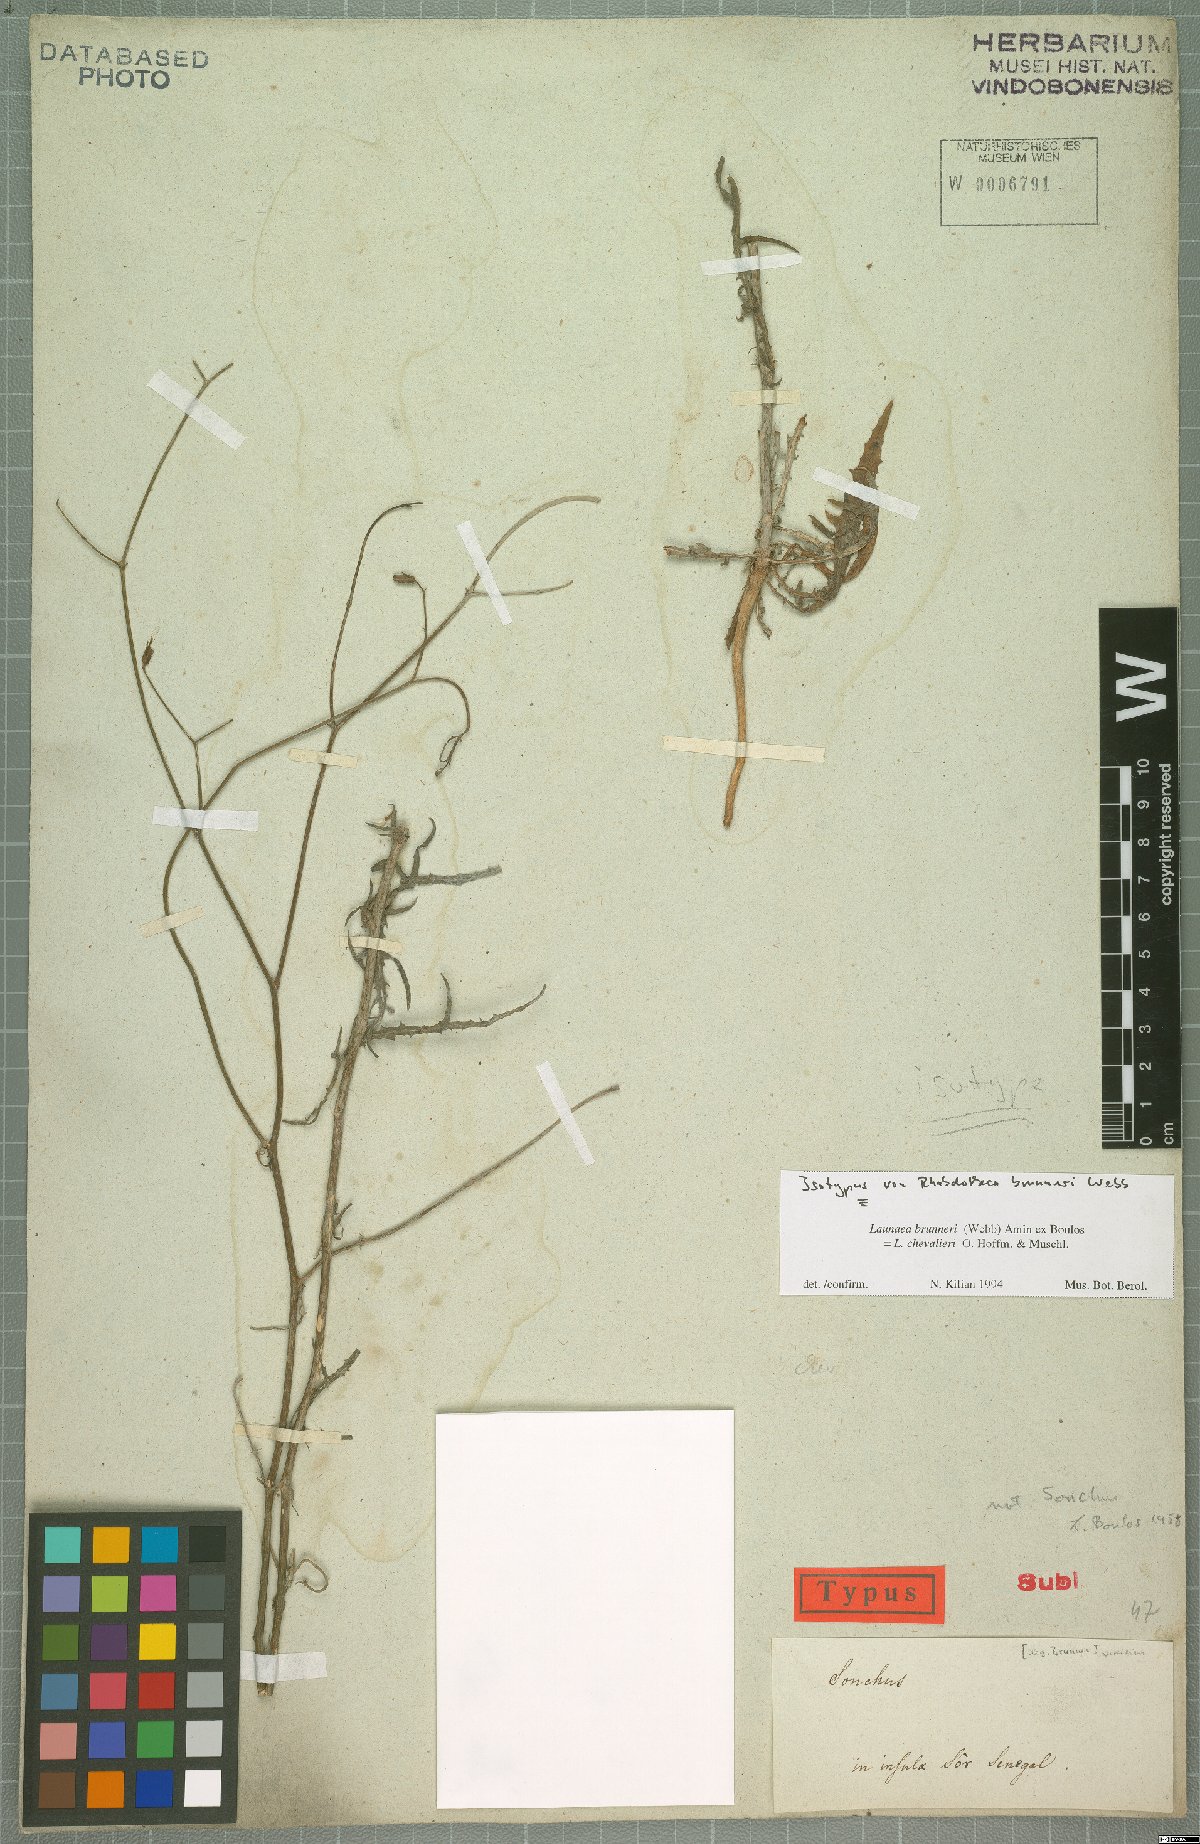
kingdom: Plantae
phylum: Tracheophyta
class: Magnoliopsida
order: Asterales
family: Asteraceae
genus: Launaea
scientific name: Launaea brunneri
